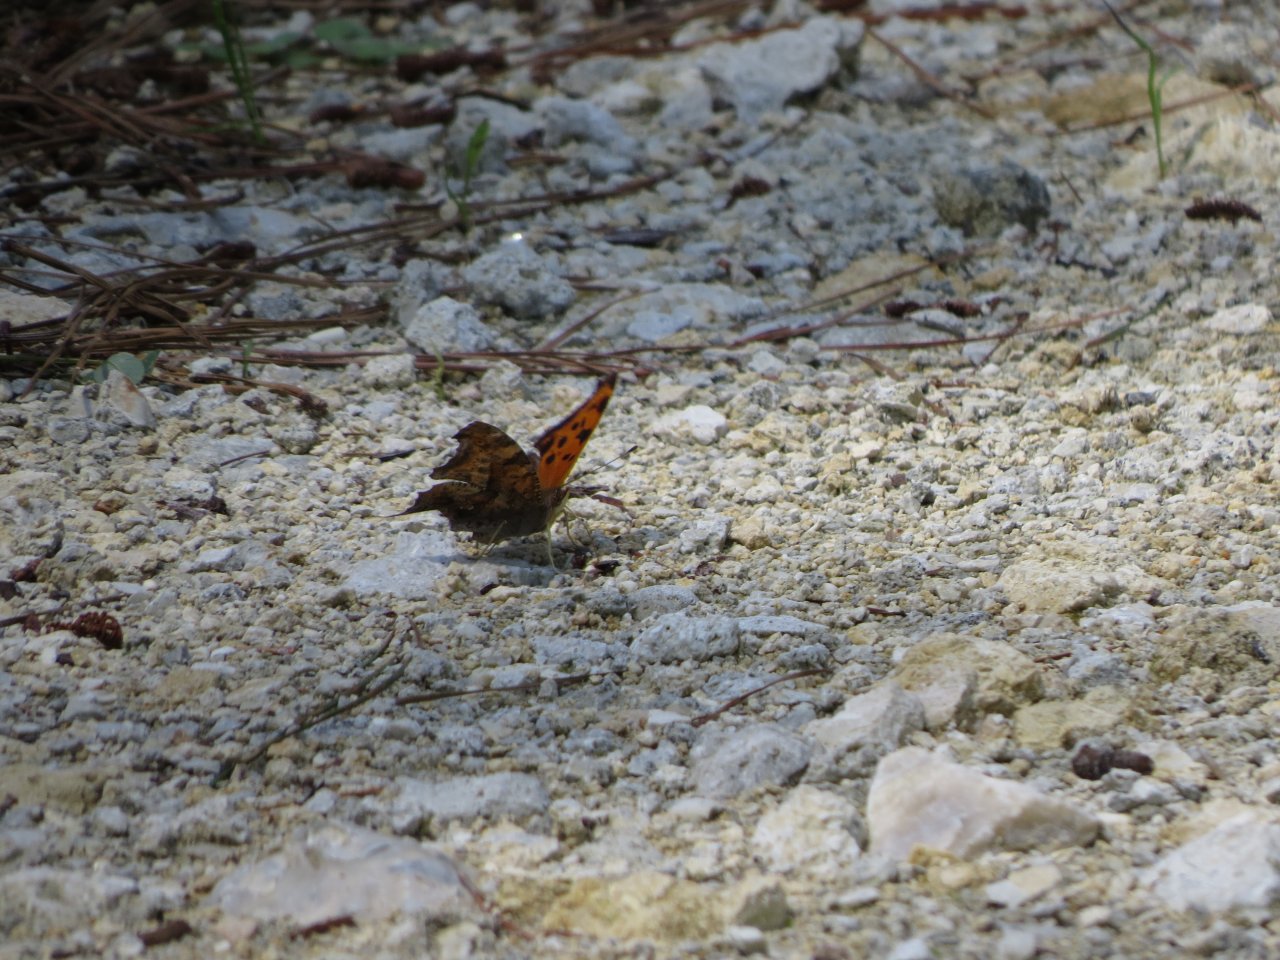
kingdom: Animalia
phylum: Arthropoda
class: Insecta
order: Lepidoptera
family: Nymphalidae
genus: Polygonia
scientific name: Polygonia interrogationis
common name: Question Mark
